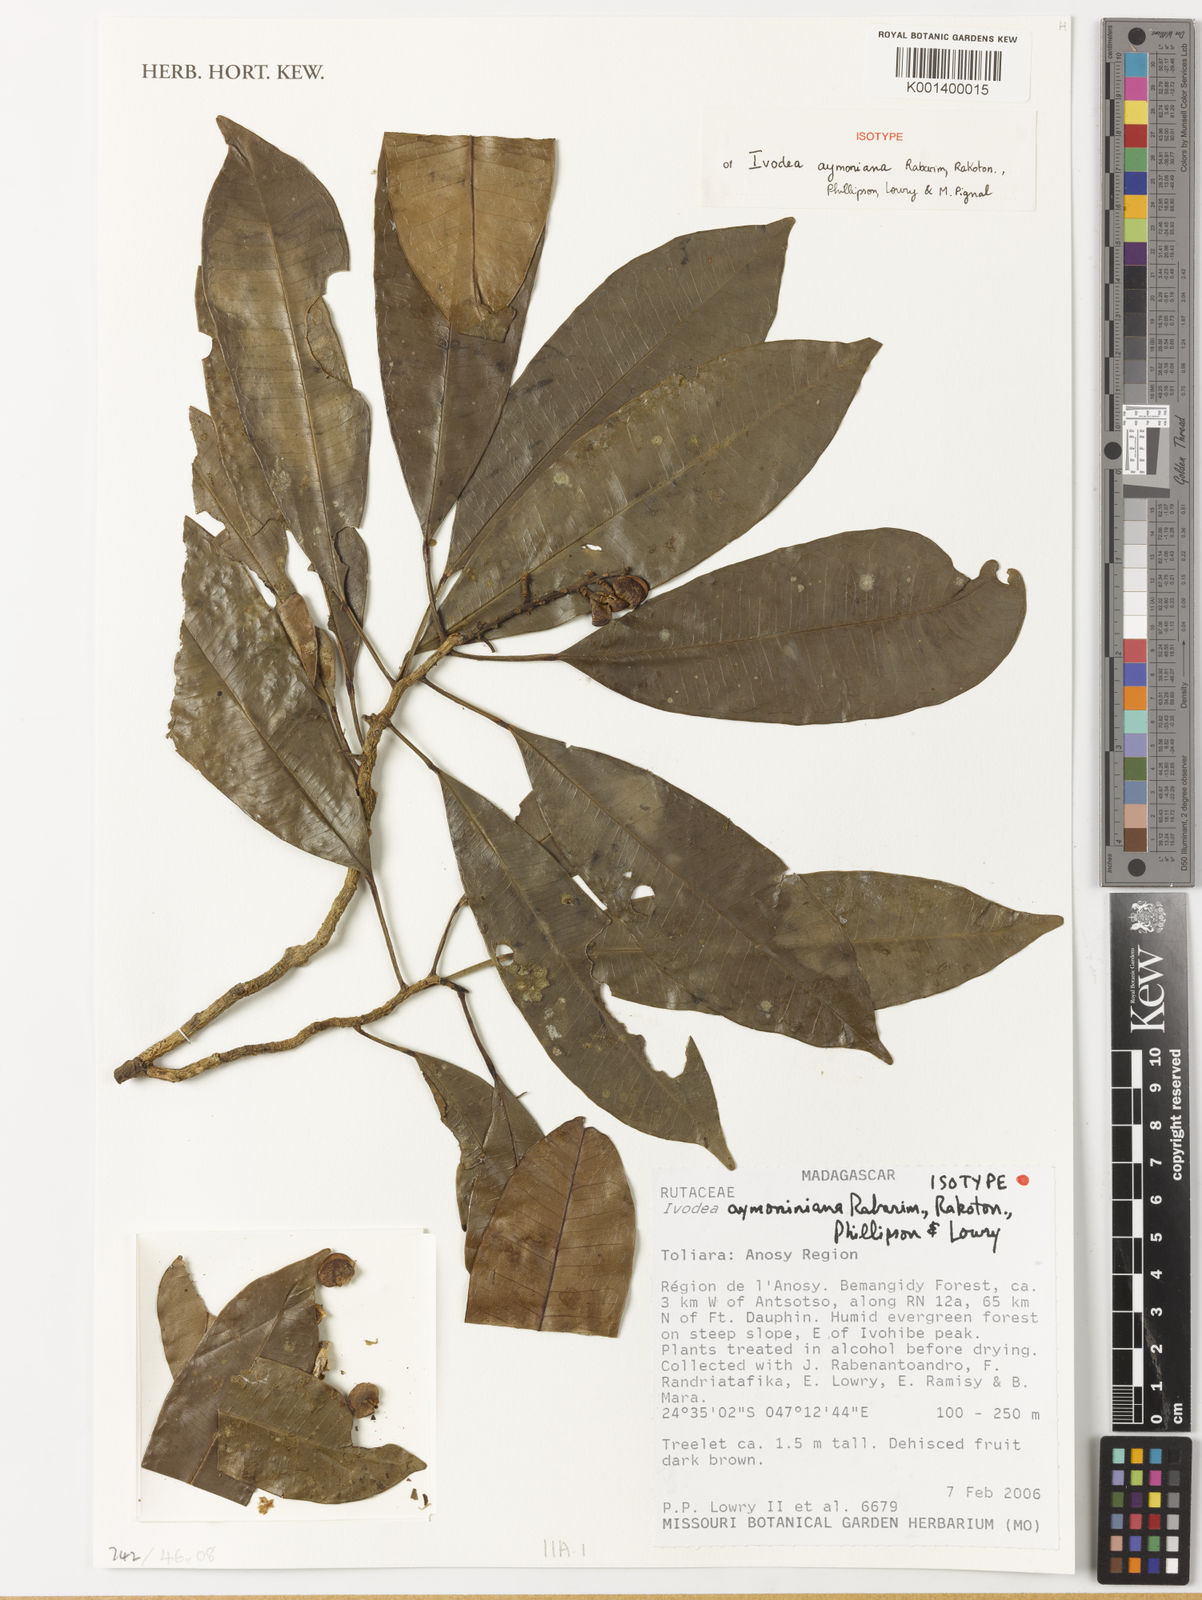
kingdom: Plantae
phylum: Tracheophyta
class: Magnoliopsida
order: Sapindales
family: Rutaceae
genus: Ivodea
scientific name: Ivodea aymoniniana
